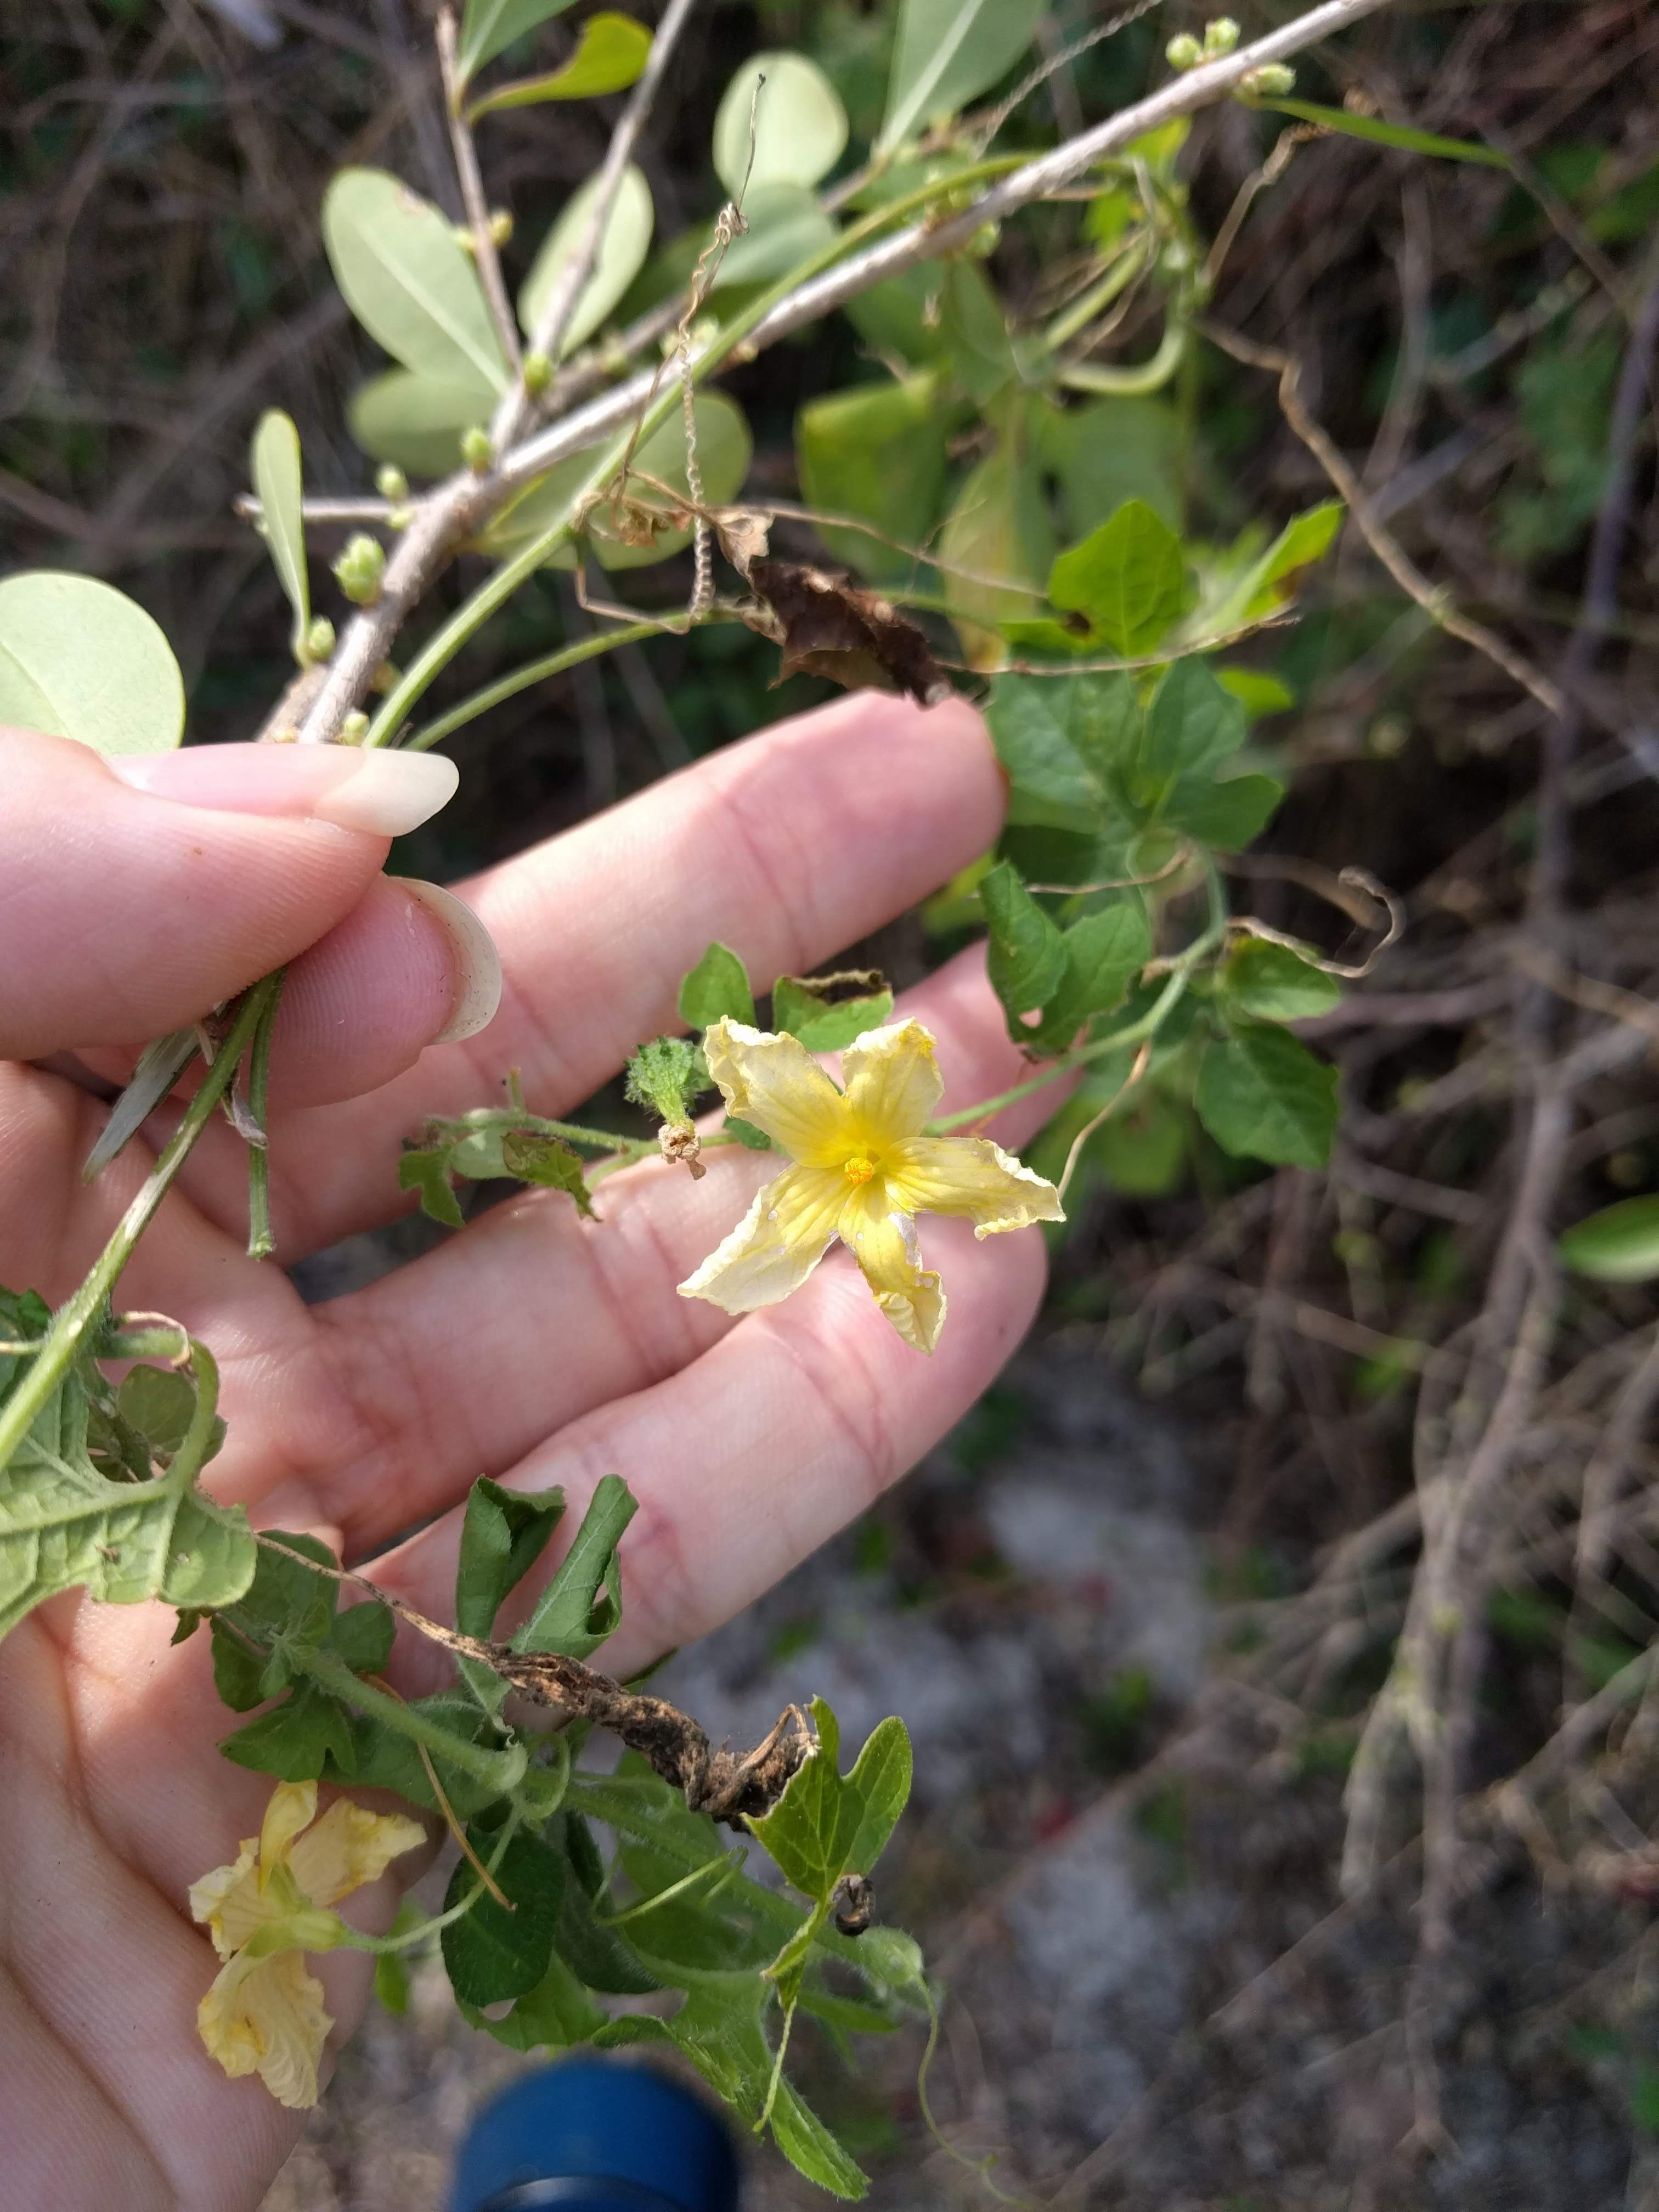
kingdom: Plantae
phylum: Tracheophyta
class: Magnoliopsida
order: Cucurbitales
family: Cucurbitaceae
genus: Momordica
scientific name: Momordica charantia
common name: Balsampear
